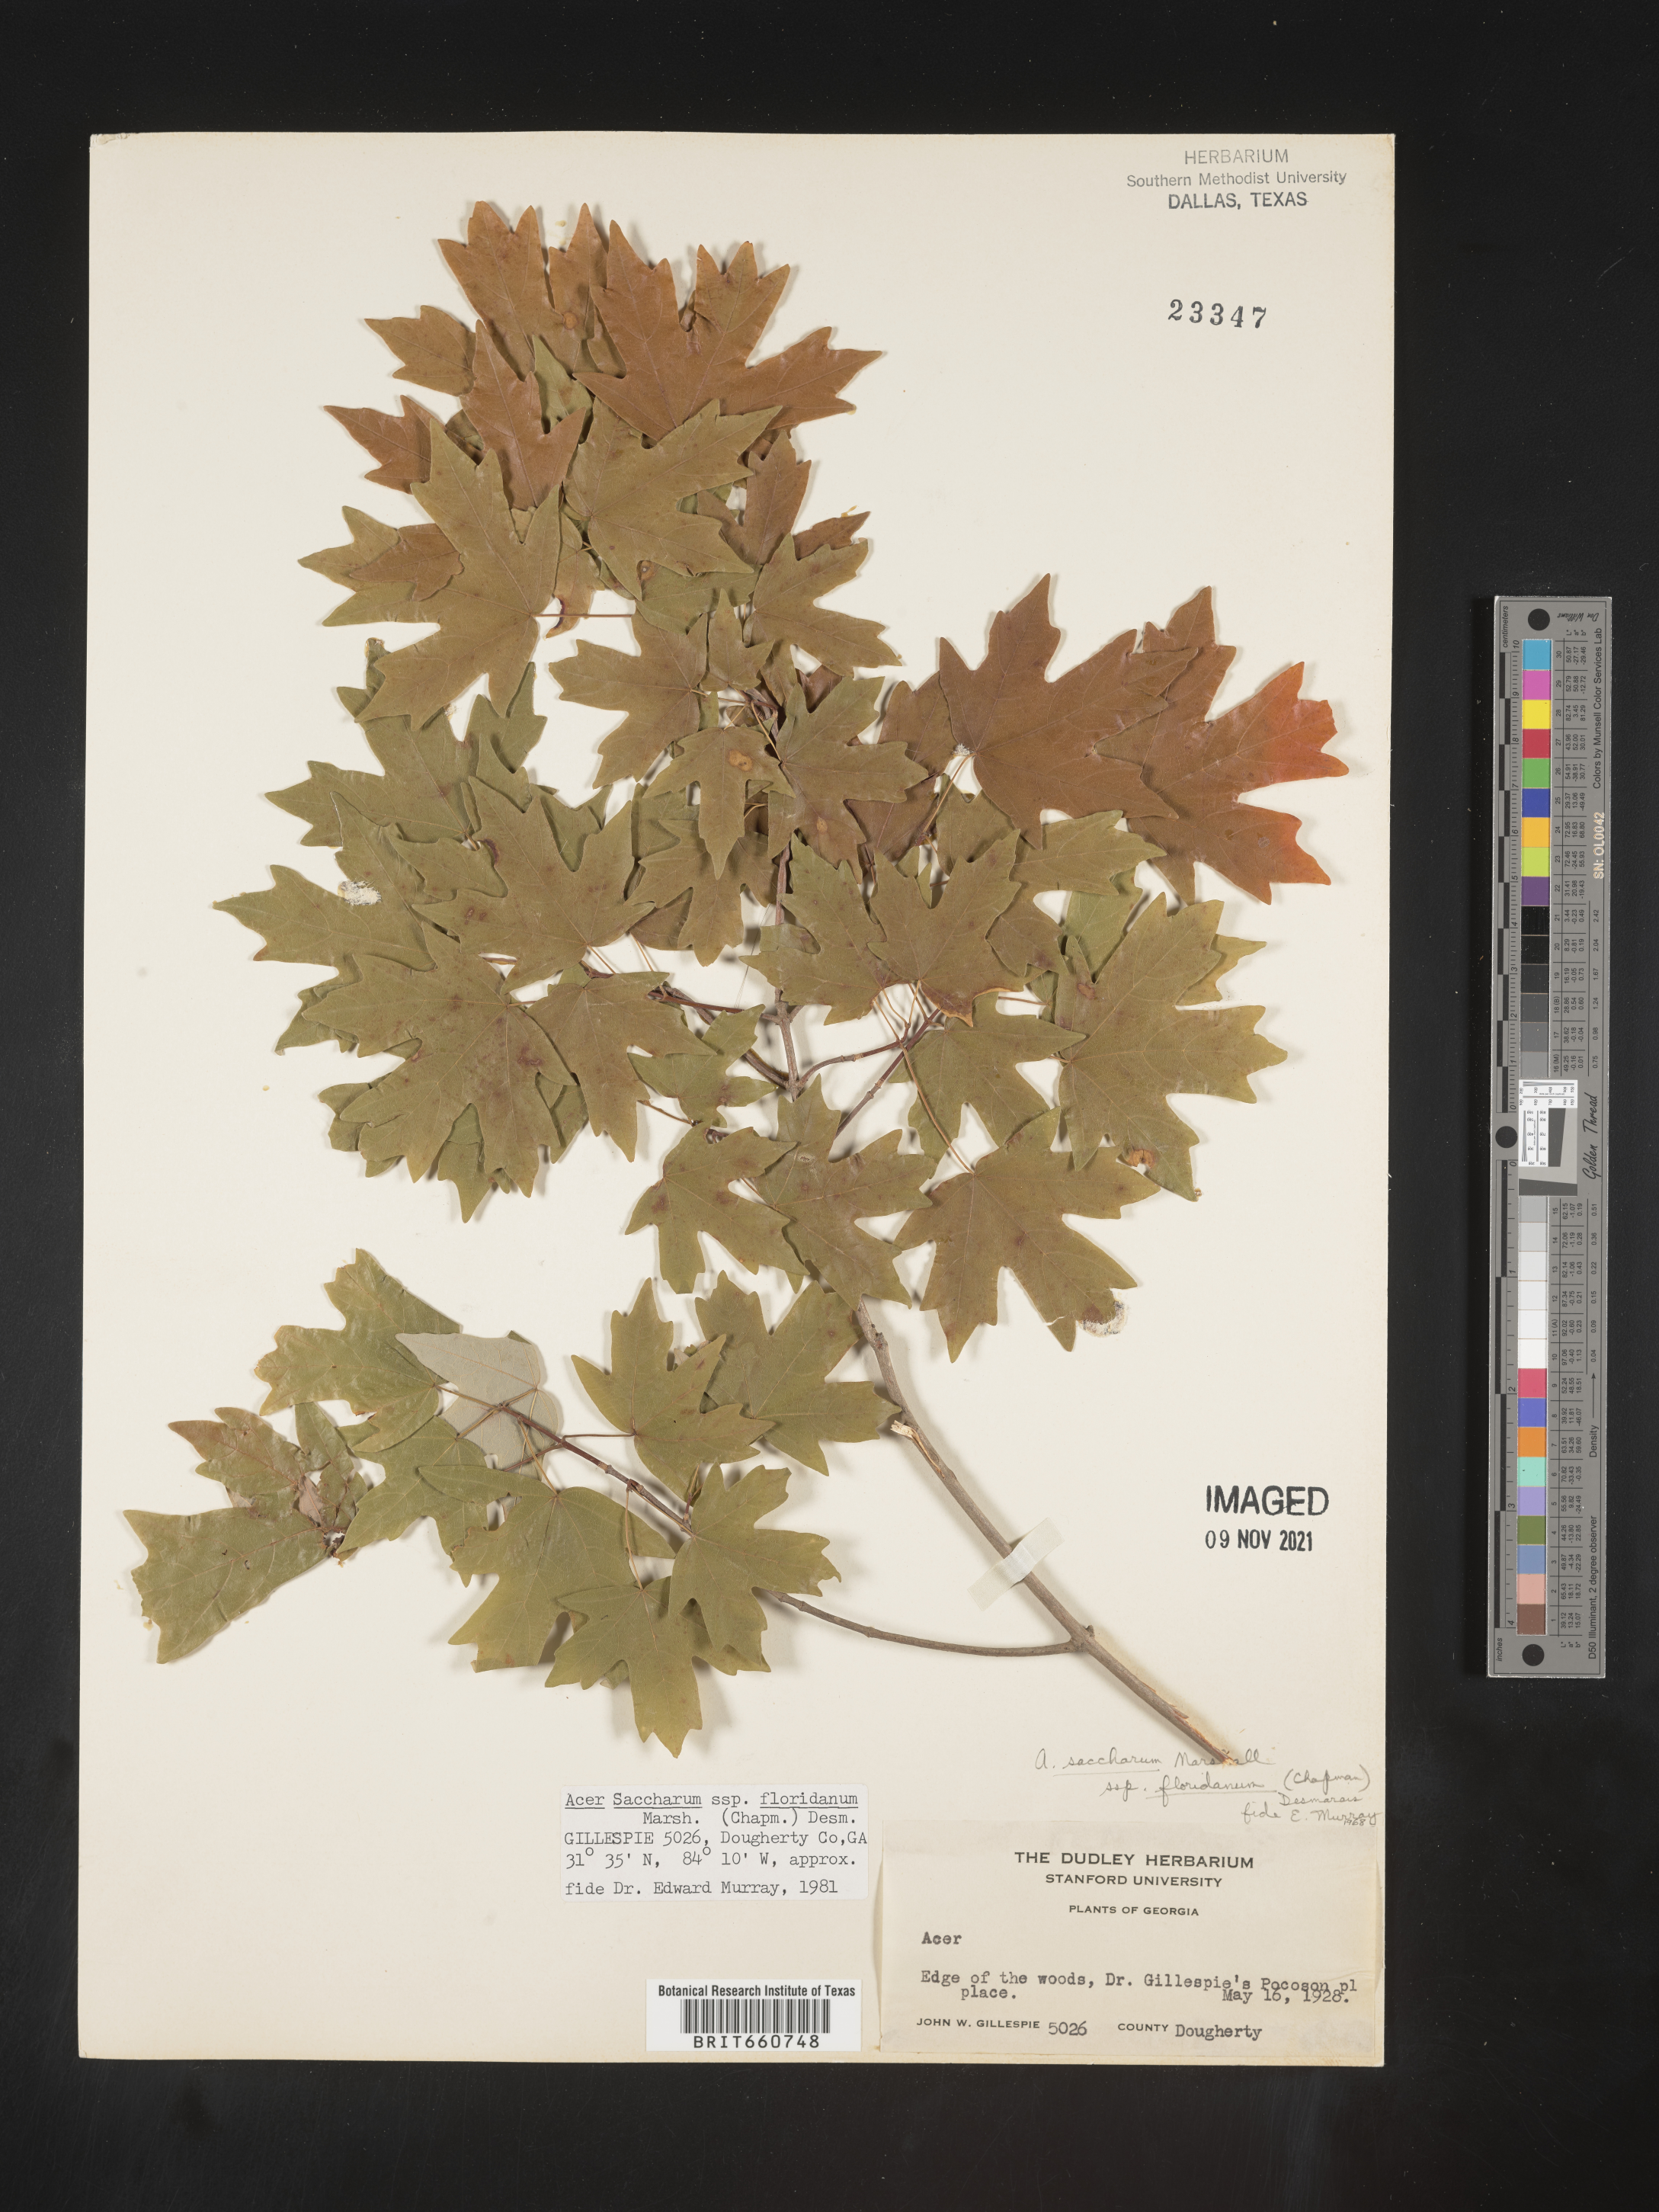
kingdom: Plantae
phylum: Tracheophyta
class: Magnoliopsida
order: Sapindales
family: Sapindaceae
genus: Acer
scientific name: Acer barbatum
